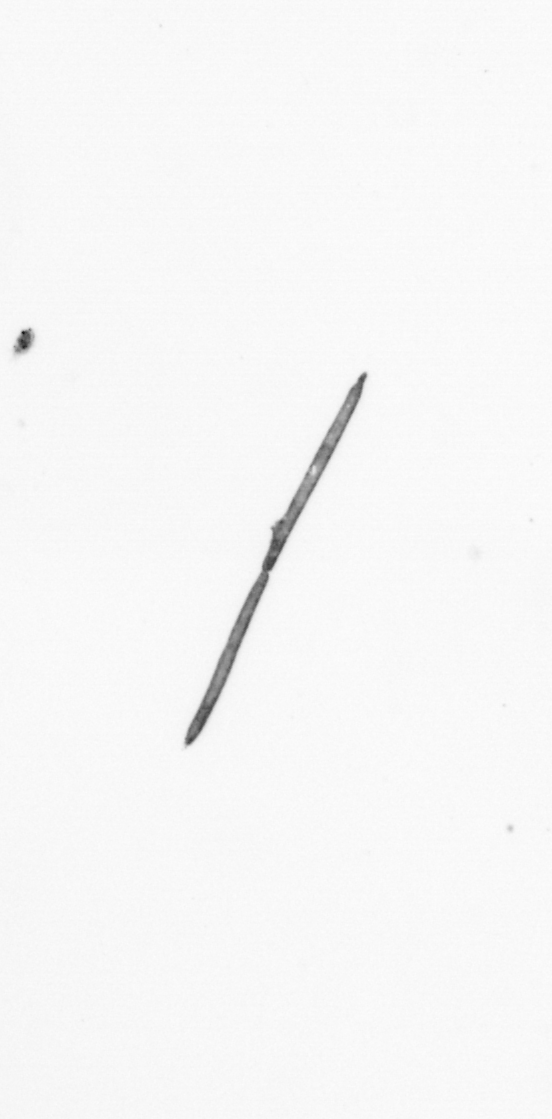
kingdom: Chromista
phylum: Ochrophyta
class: Bacillariophyceae
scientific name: Bacillariophyceae
